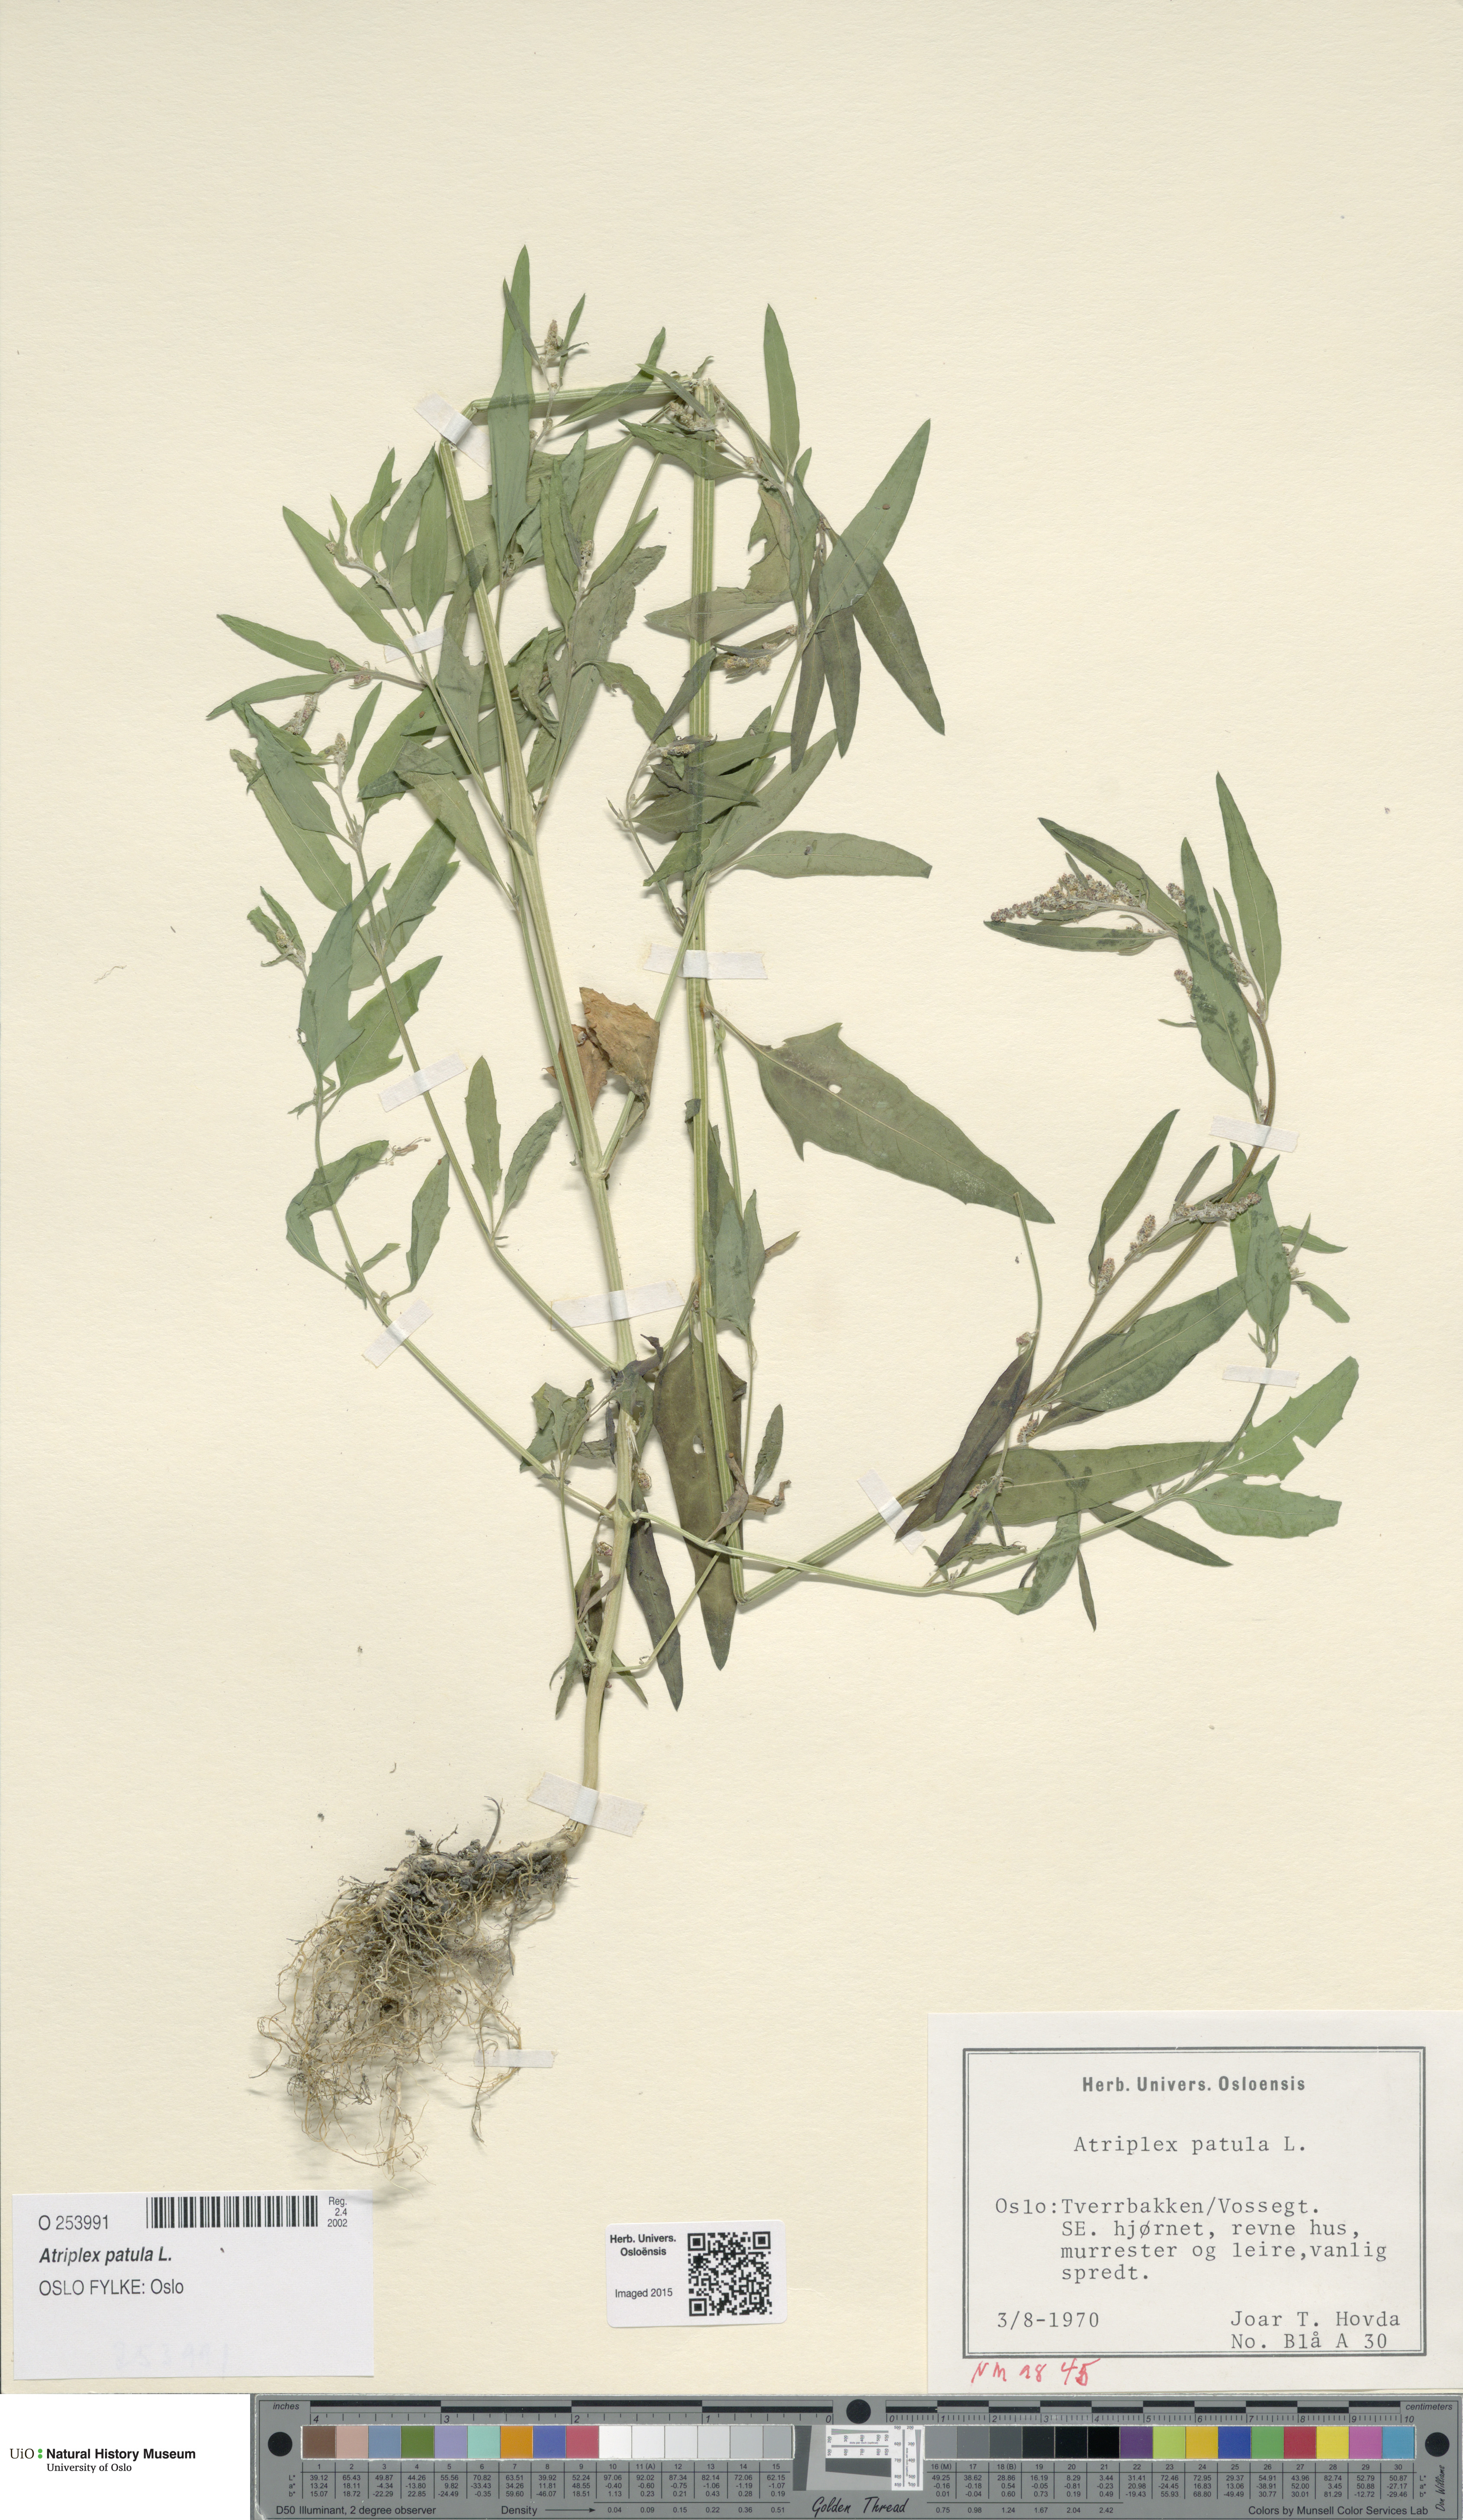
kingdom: Plantae
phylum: Tracheophyta
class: Magnoliopsida
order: Caryophyllales
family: Amaranthaceae
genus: Atriplex
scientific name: Atriplex patula
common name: Common orache
